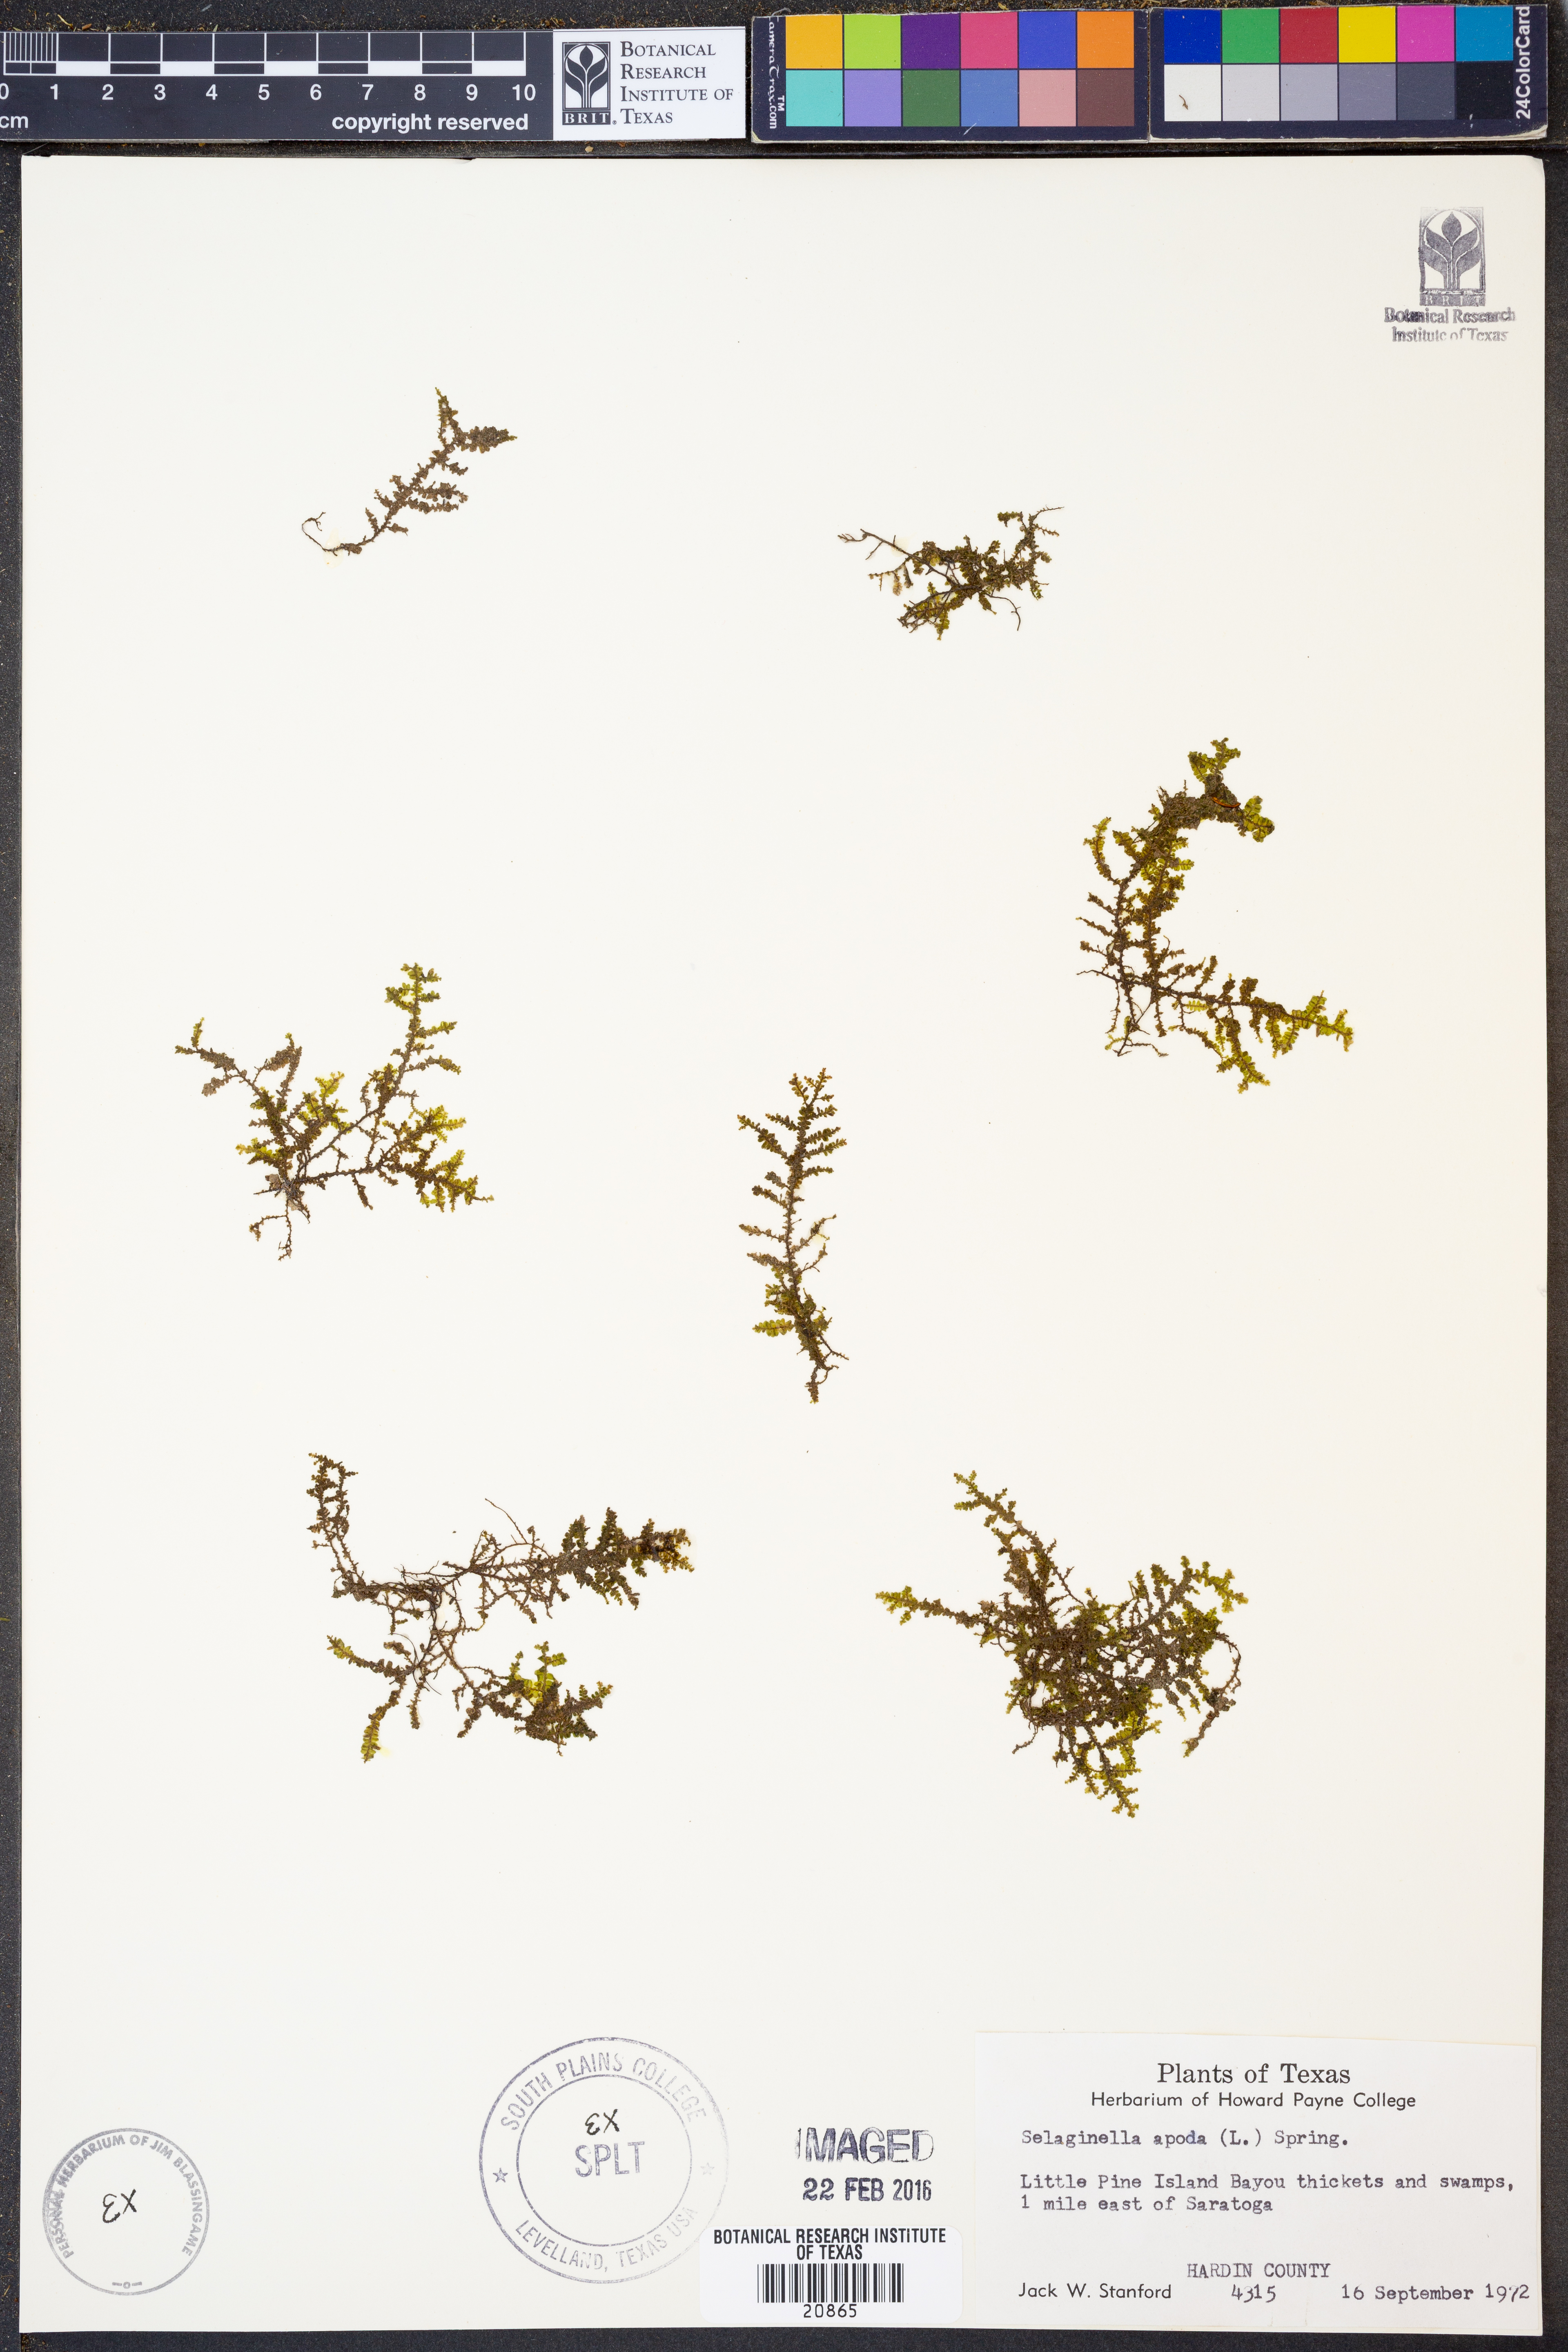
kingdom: Plantae
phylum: Tracheophyta
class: Lycopodiopsida
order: Selaginellales
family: Selaginellaceae
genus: Selaginella
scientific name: Selaginella apoda
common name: Creeping spikemoss
